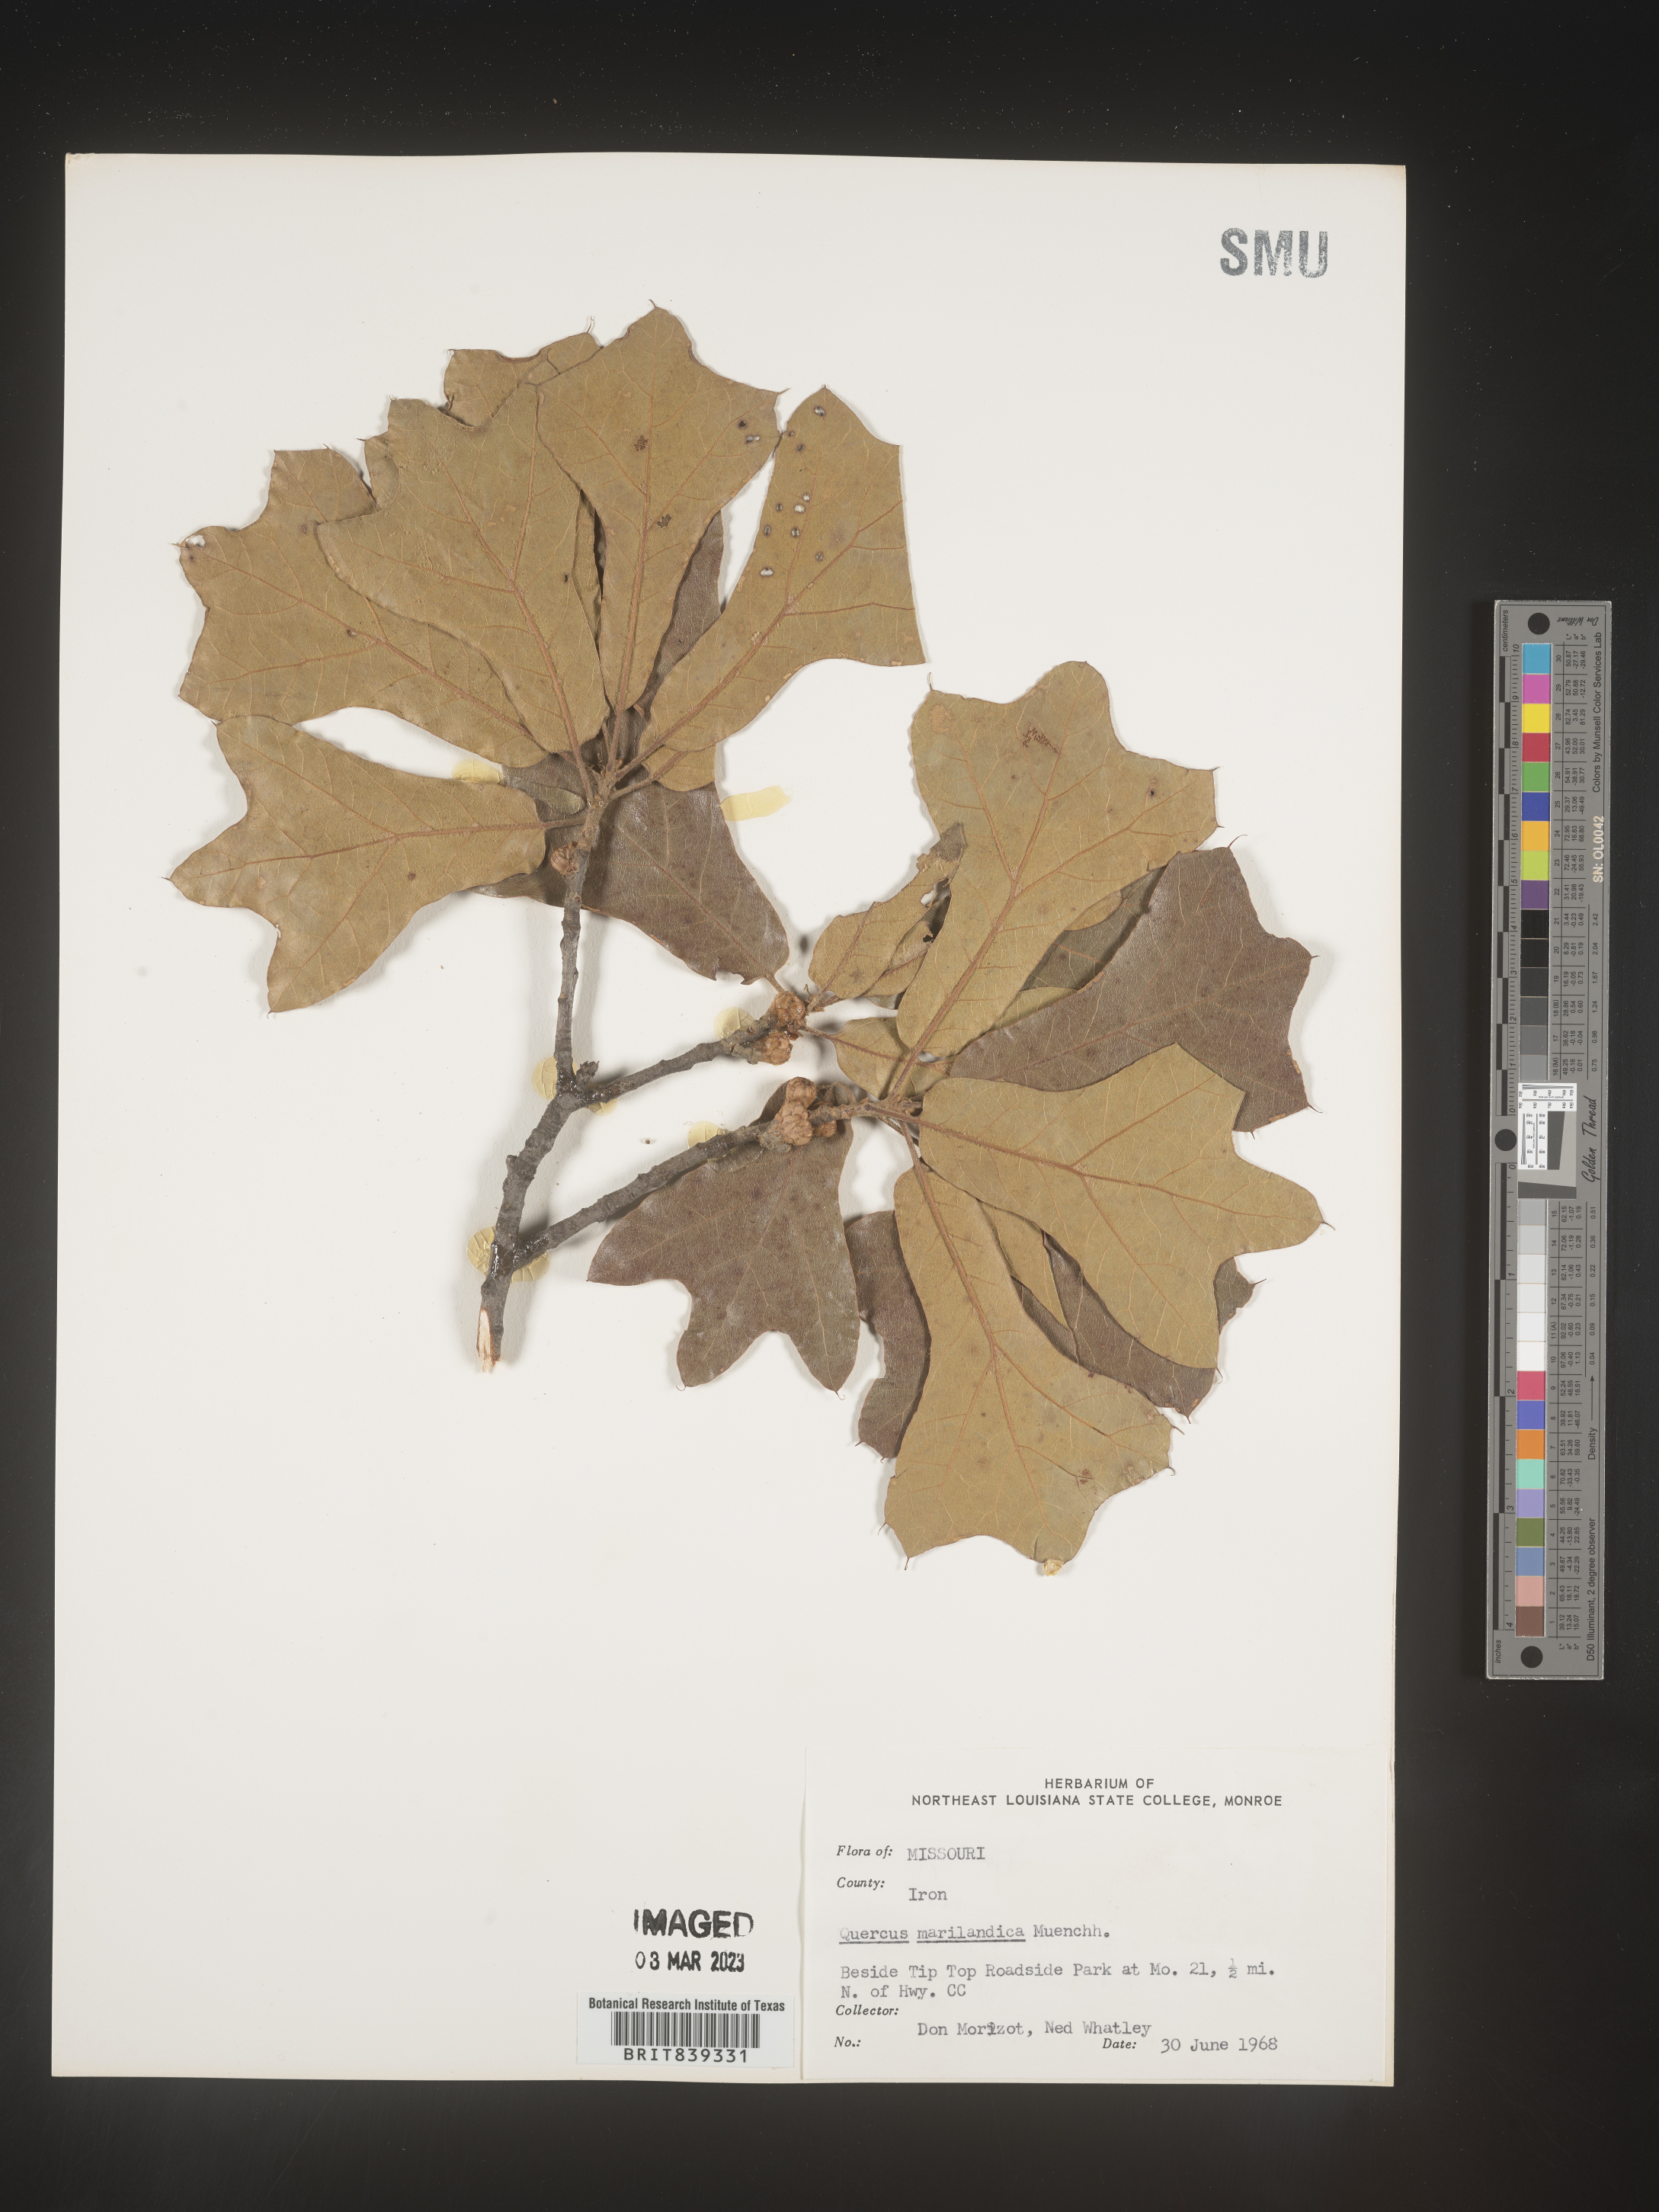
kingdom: Plantae
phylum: Tracheophyta
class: Magnoliopsida
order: Fagales
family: Fagaceae
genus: Quercus
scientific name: Quercus marilandica
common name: Blackjack oak
